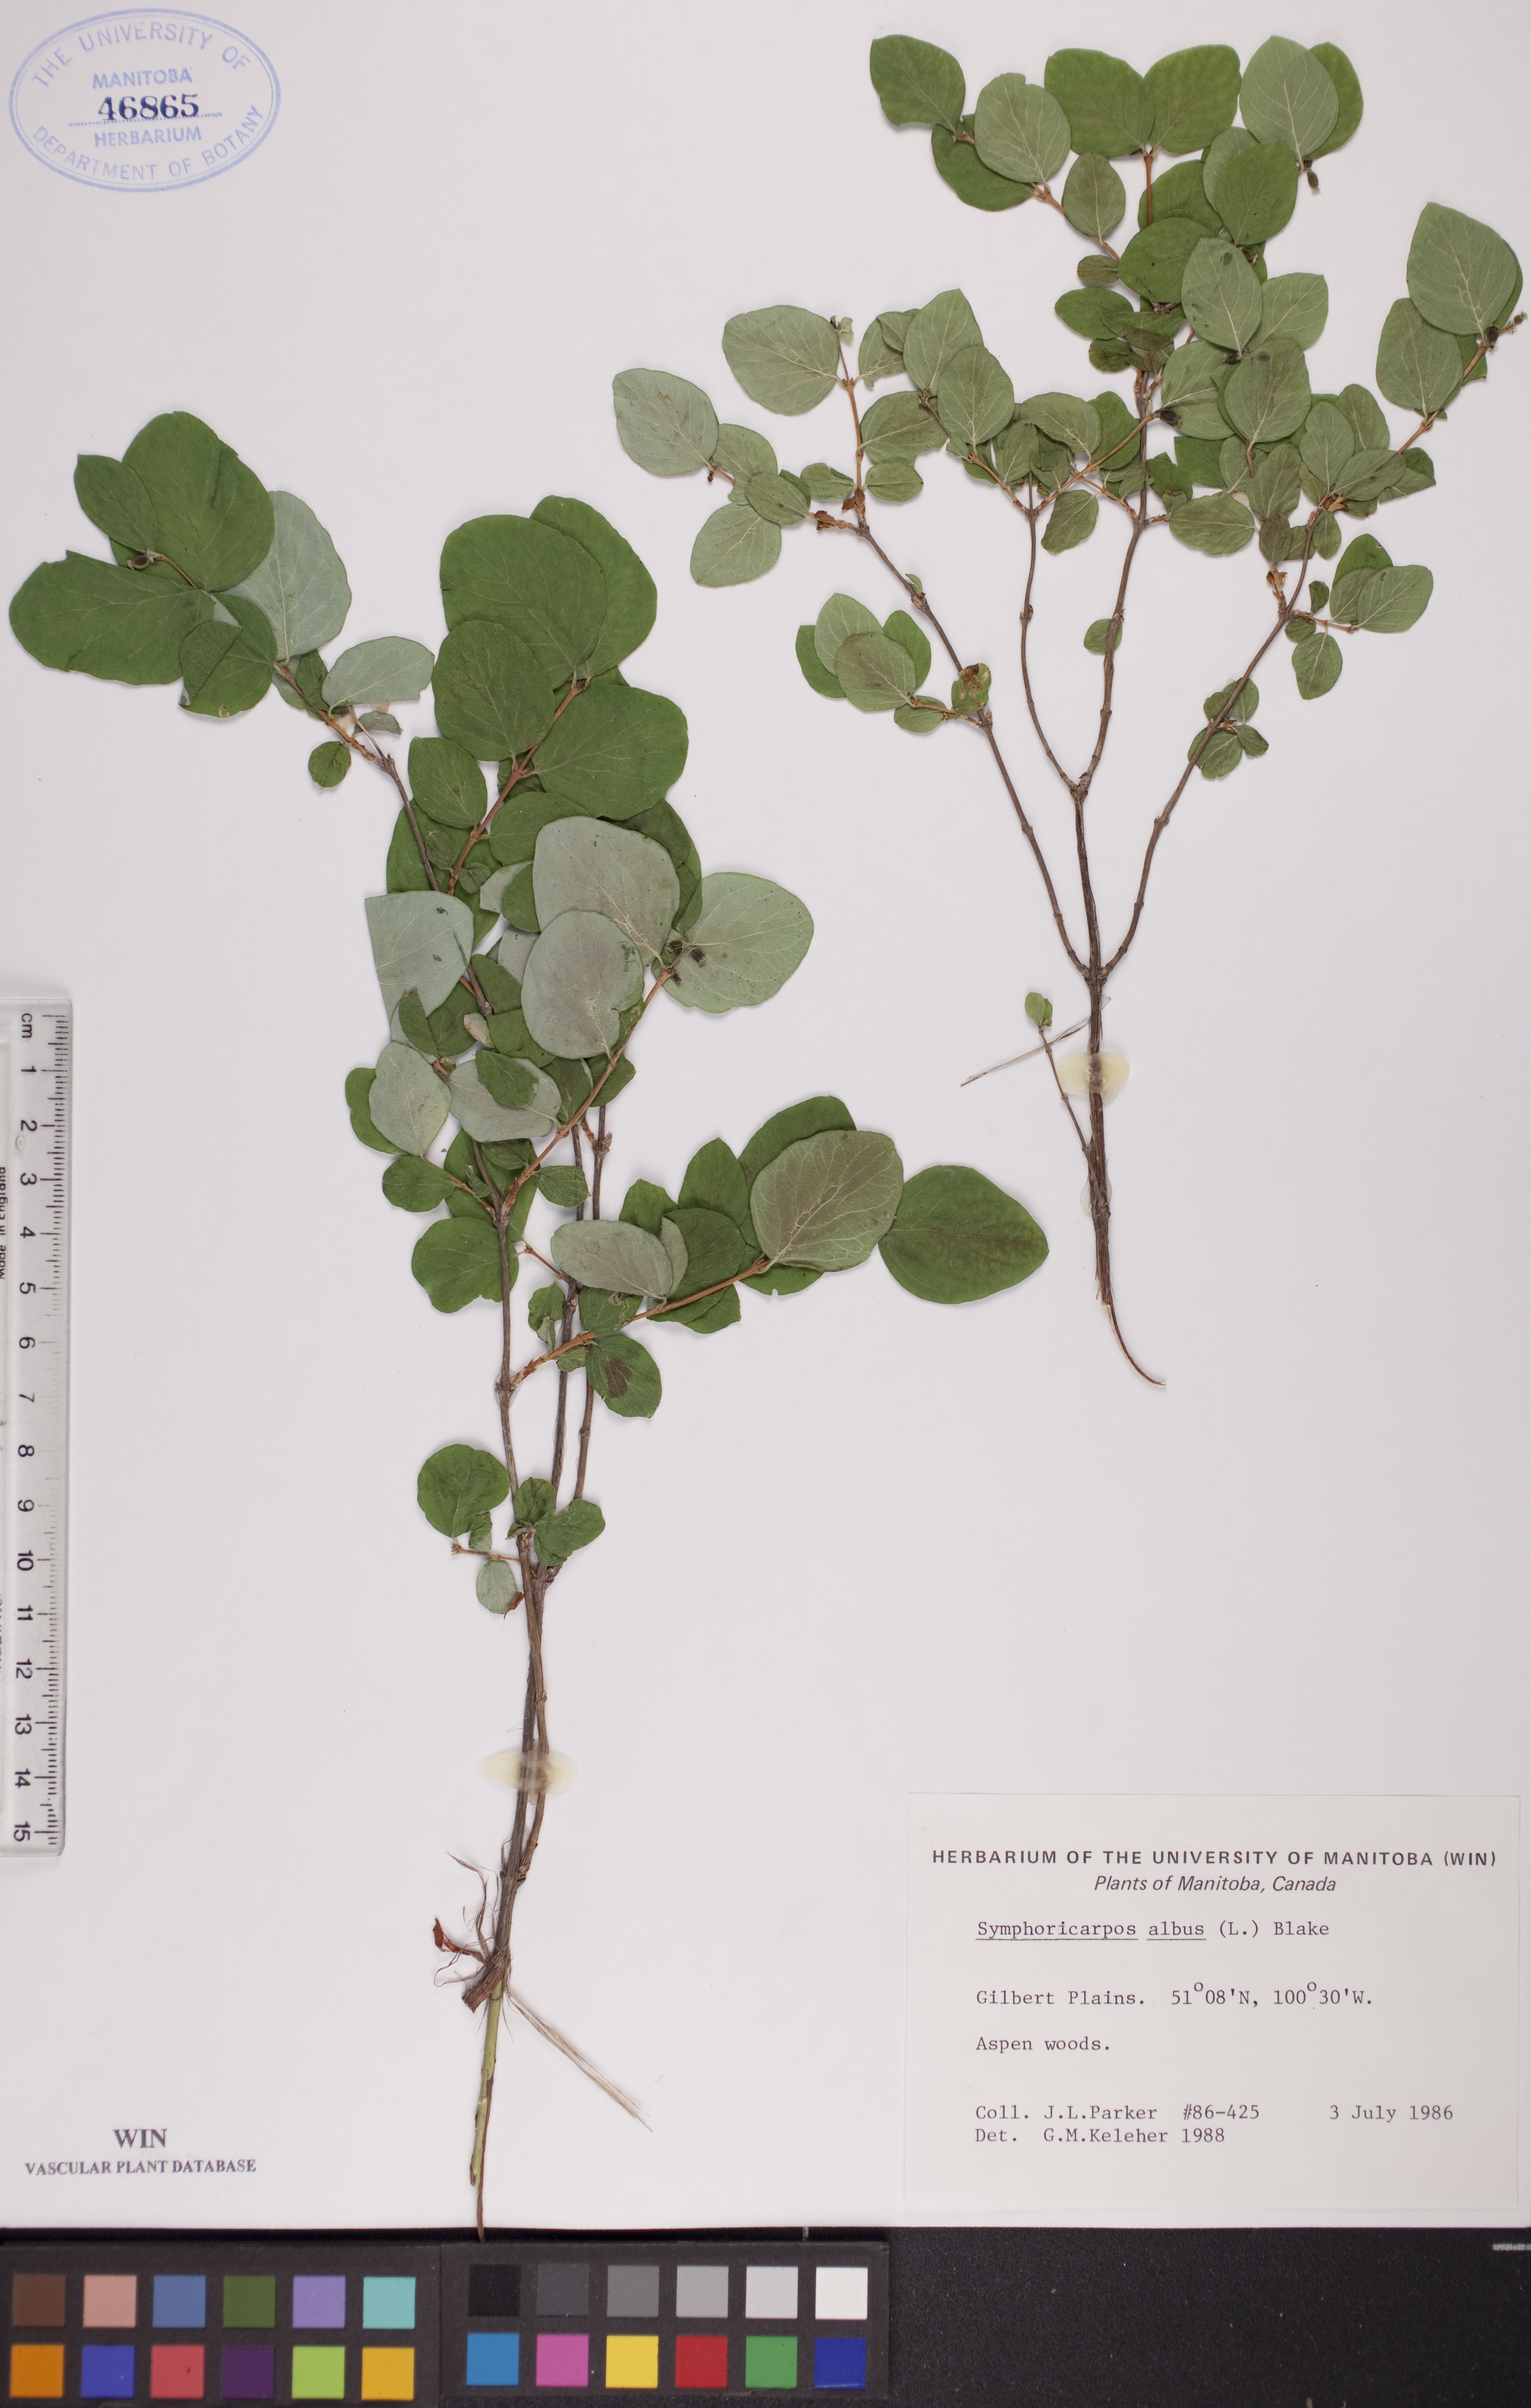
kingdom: Plantae
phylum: Tracheophyta
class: Magnoliopsida
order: Dipsacales
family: Caprifoliaceae
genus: Symphoricarpos
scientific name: Symphoricarpos albus
